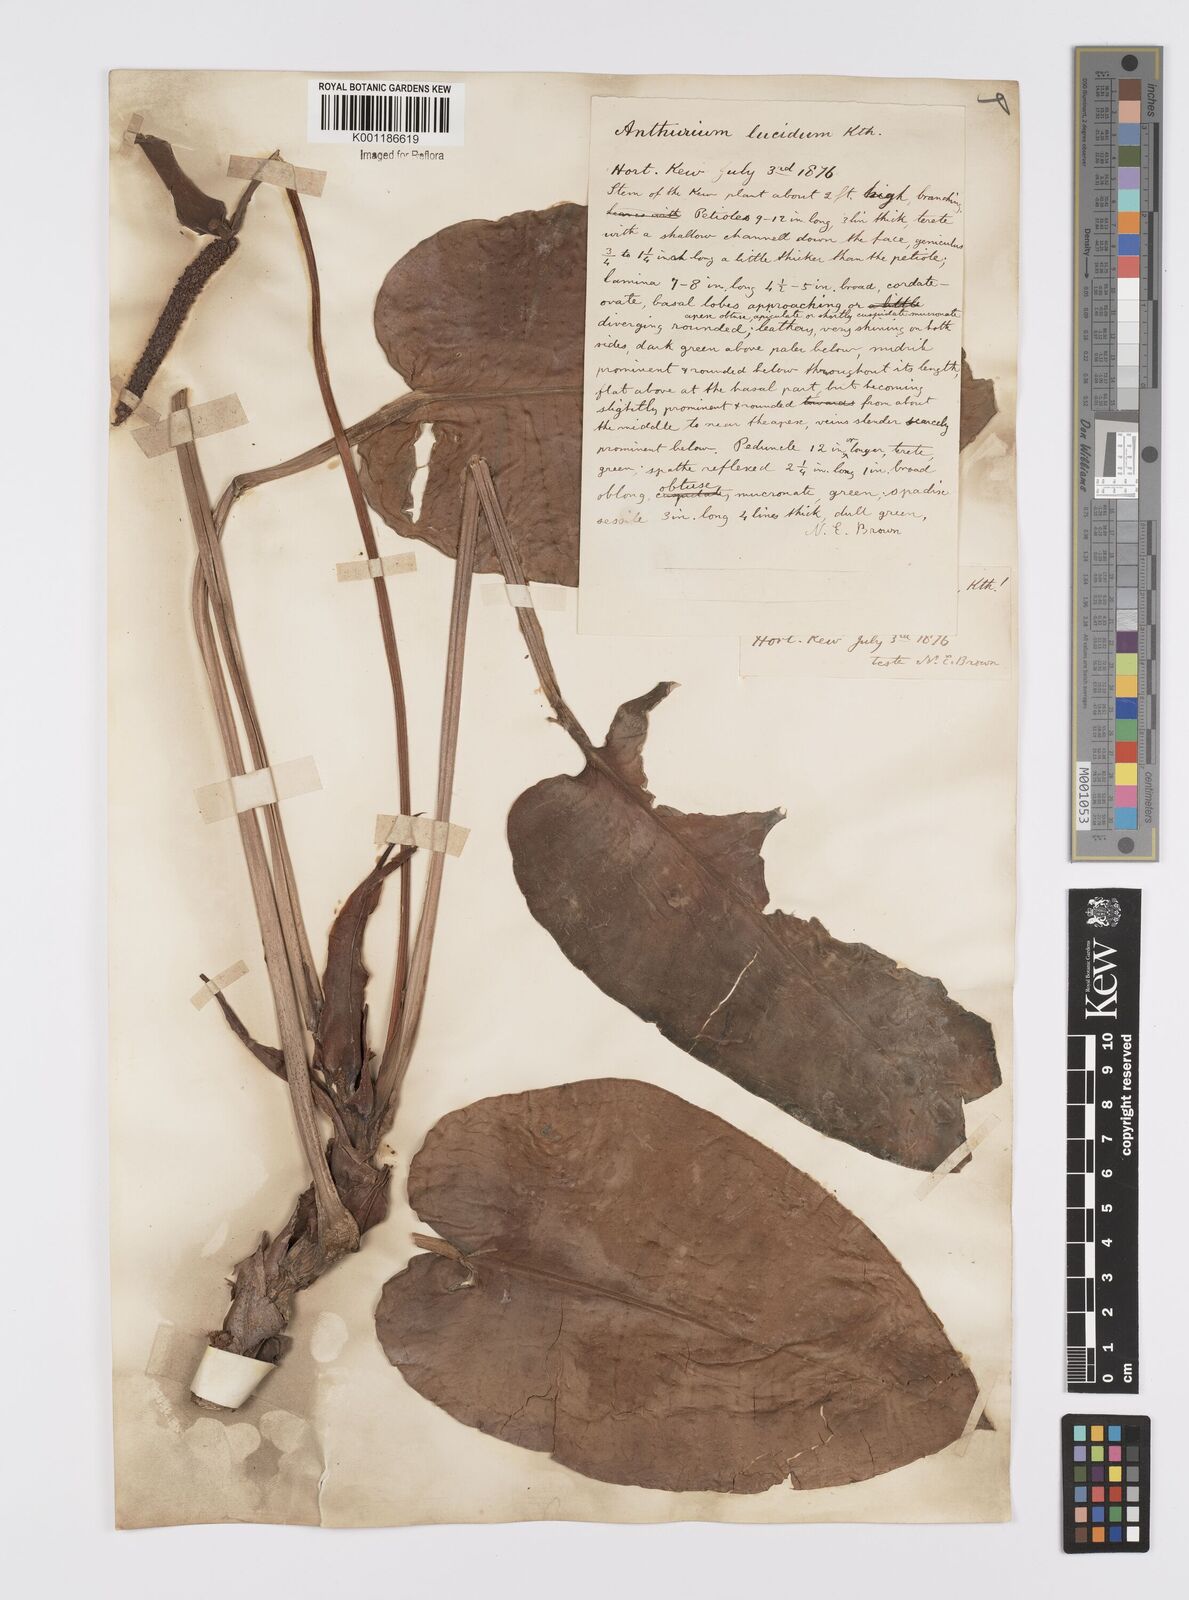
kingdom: Plantae
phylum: Tracheophyta
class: Liliopsida
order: Alismatales
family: Araceae
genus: Anthurium
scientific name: Anthurium lucidum
